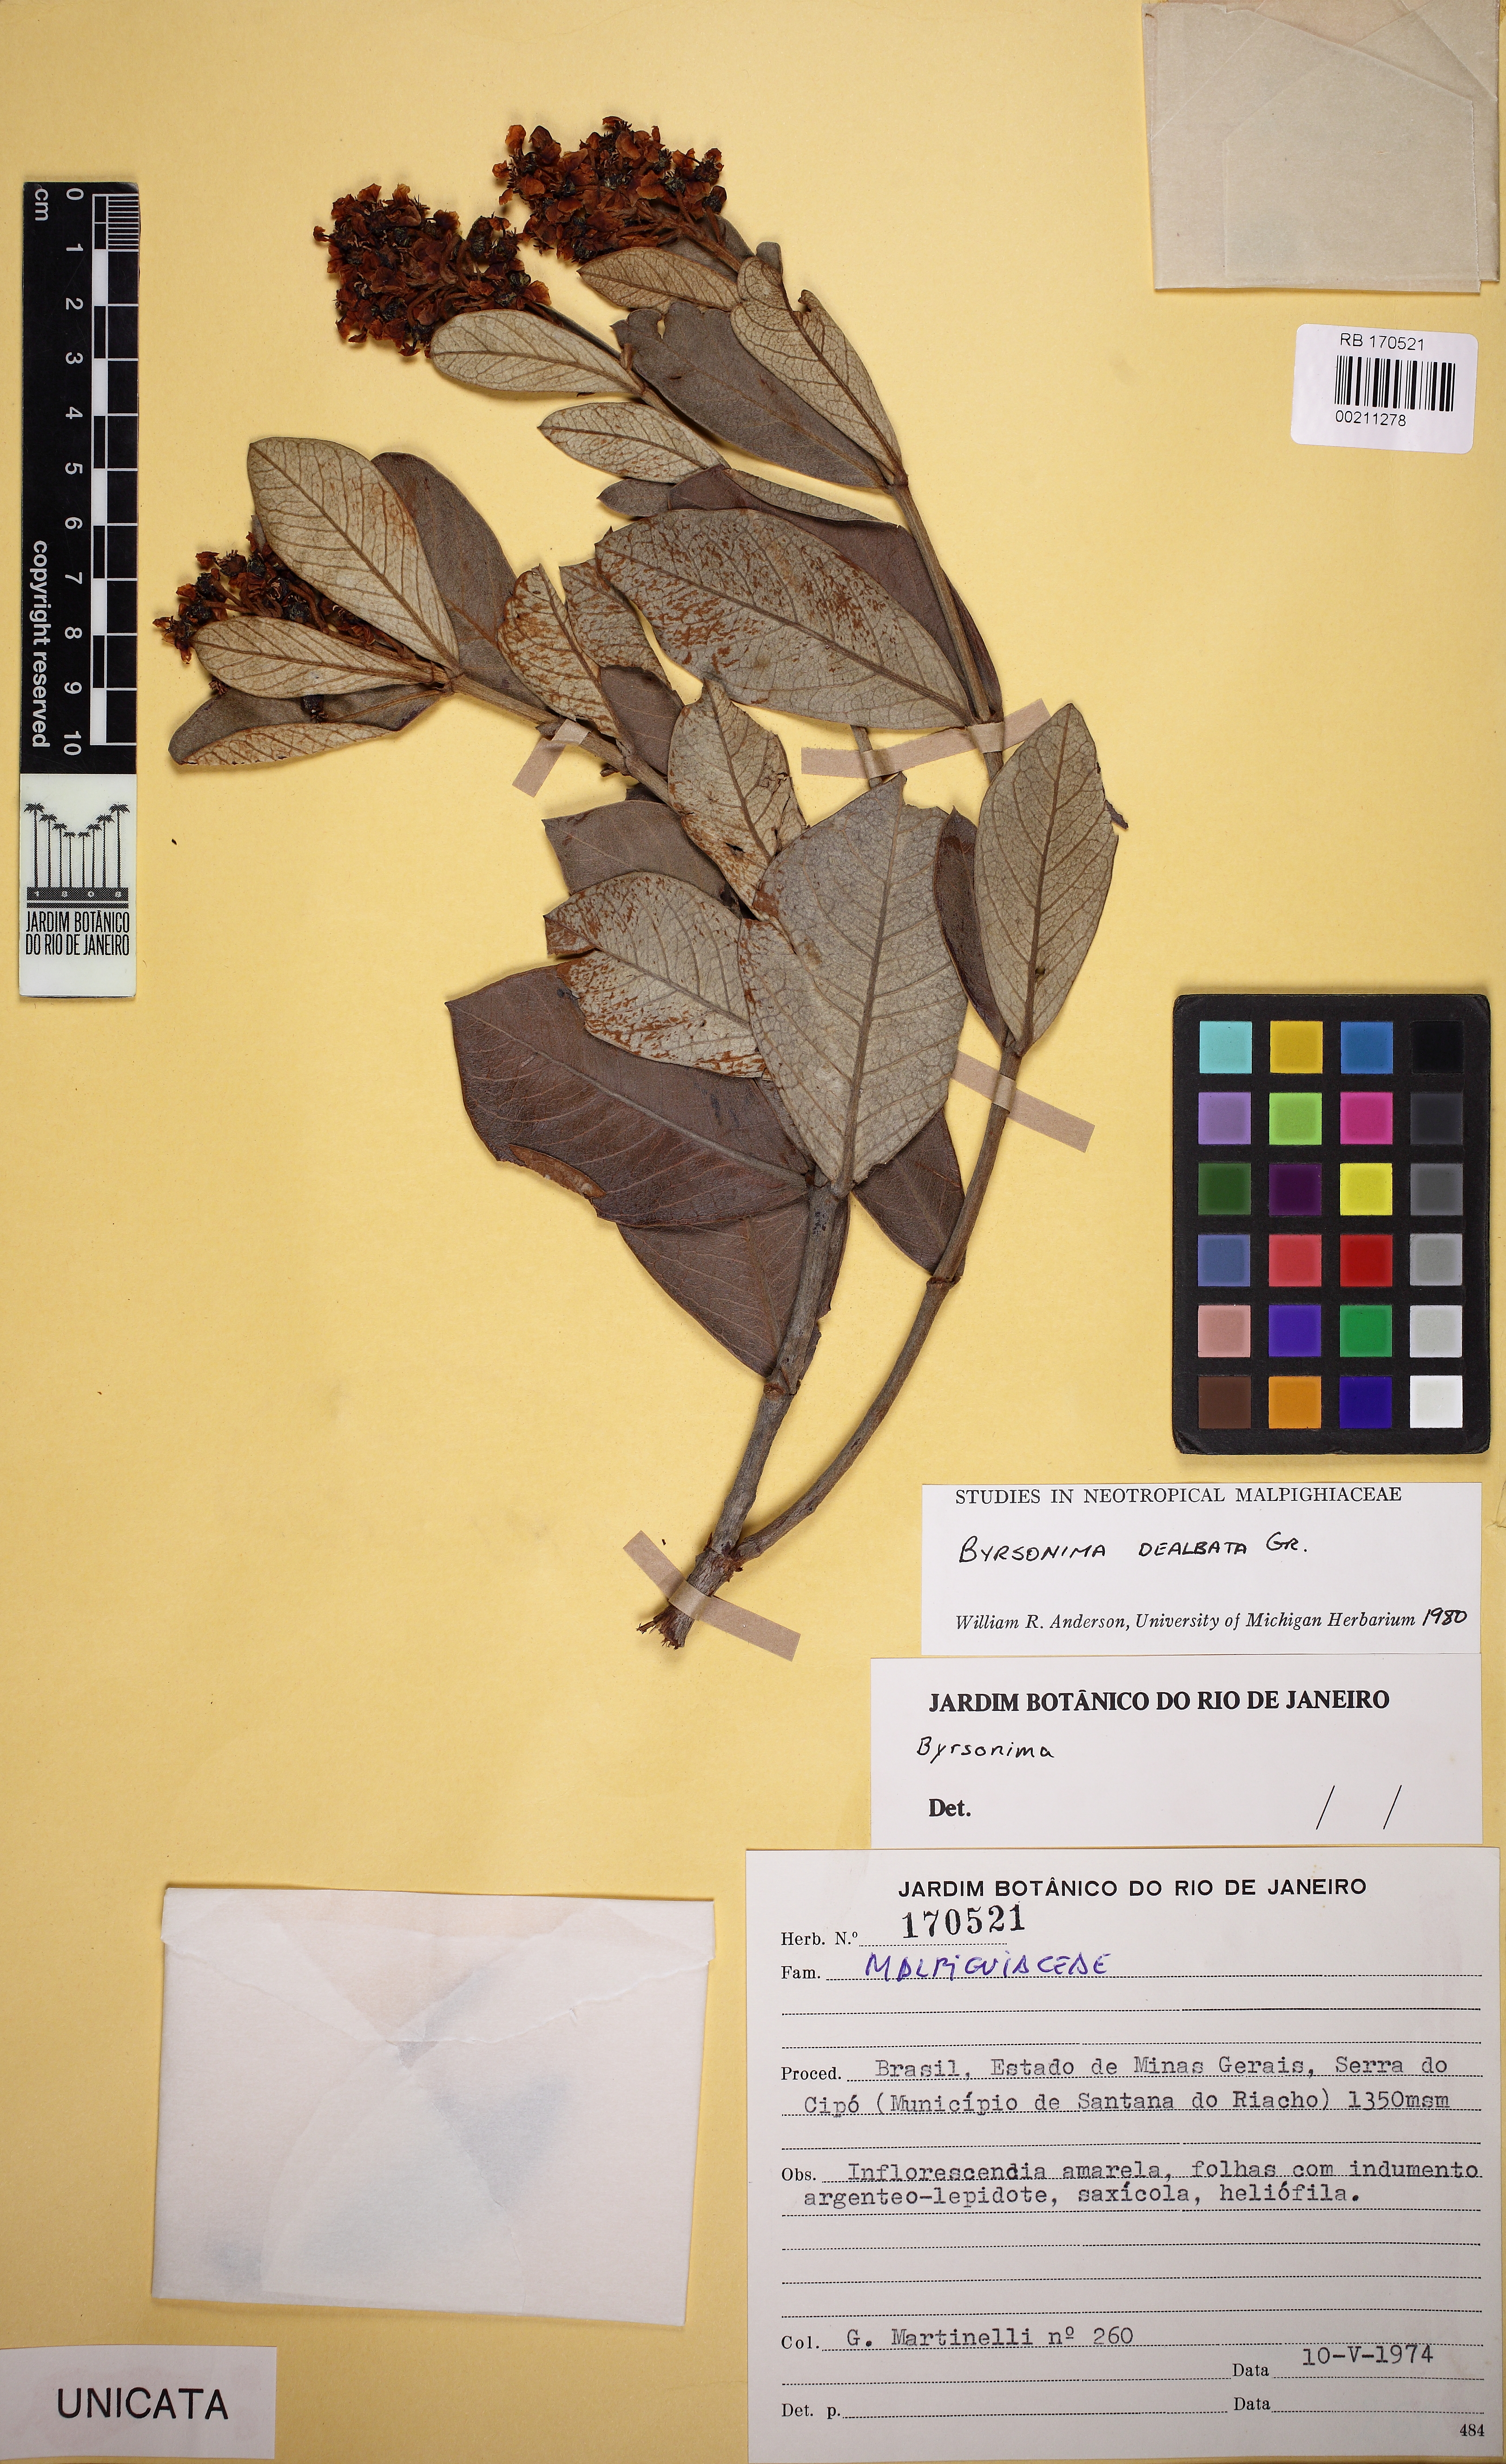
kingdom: Plantae
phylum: Tracheophyta
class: Magnoliopsida
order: Malpighiales
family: Malpighiaceae
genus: Byrsonima
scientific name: Byrsonima dealbata
